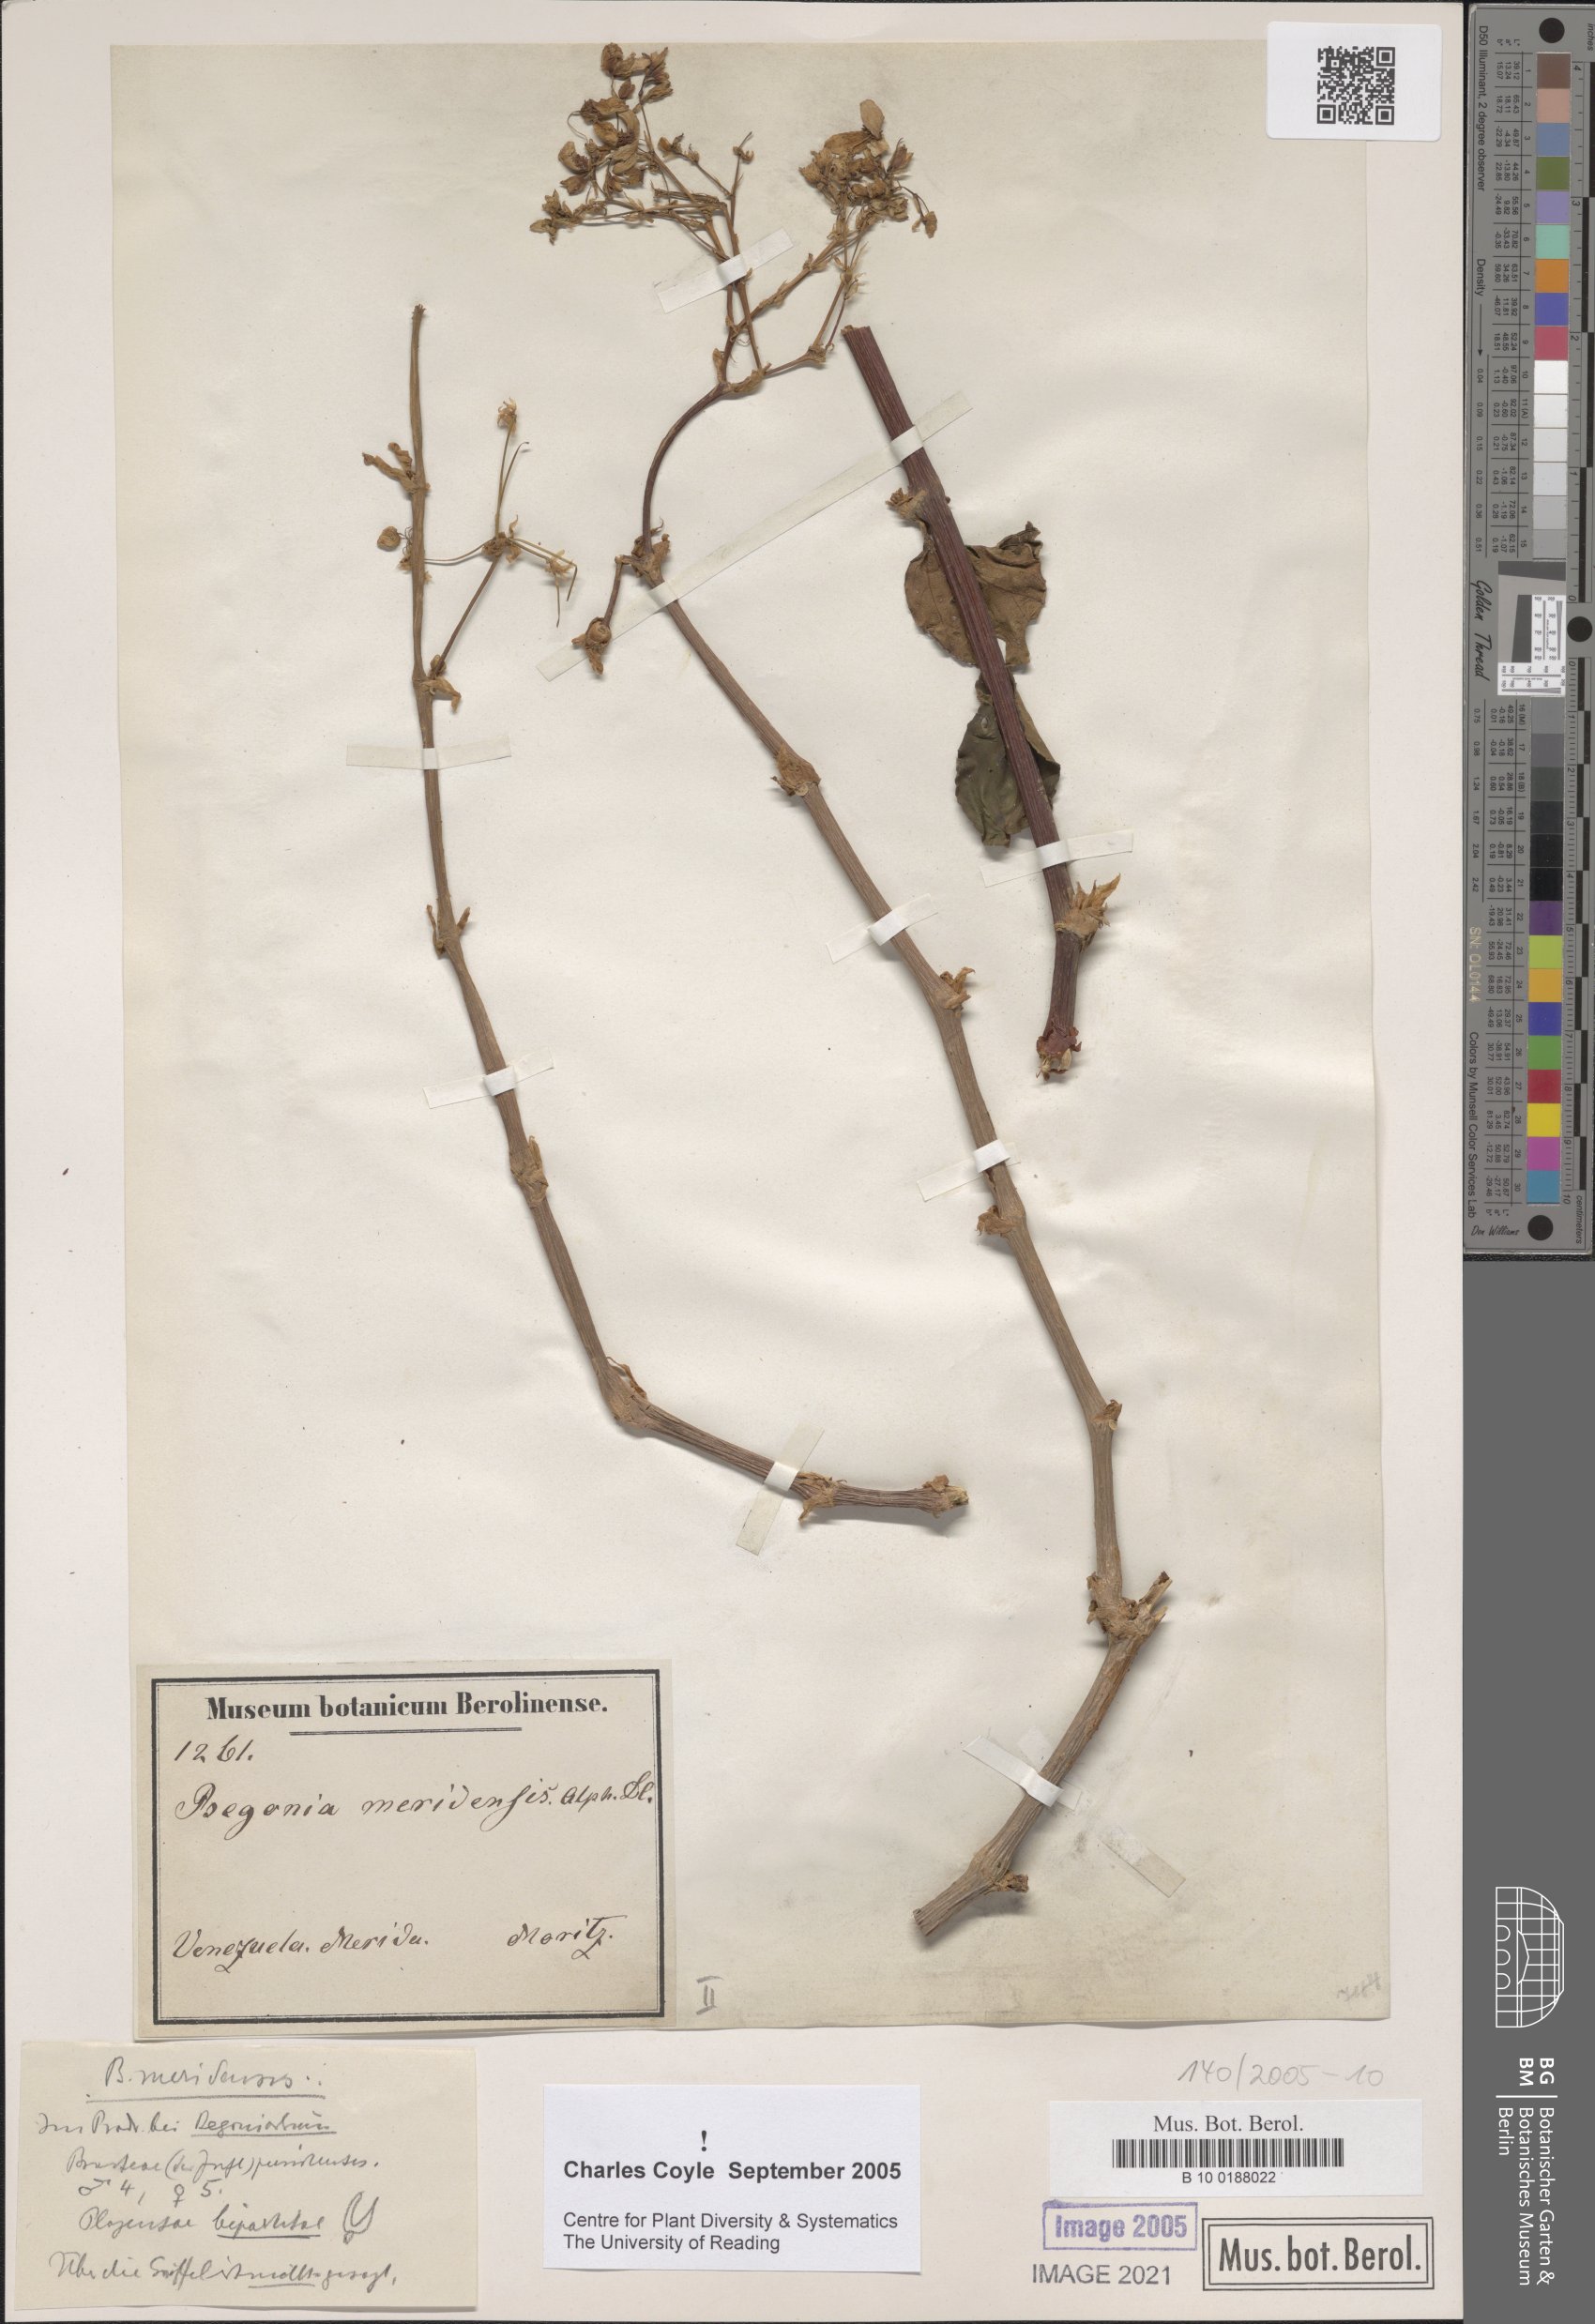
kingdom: Plantae
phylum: Tracheophyta
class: Magnoliopsida
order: Cucurbitales
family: Begoniaceae
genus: Begonia
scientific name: Begonia meridensis
